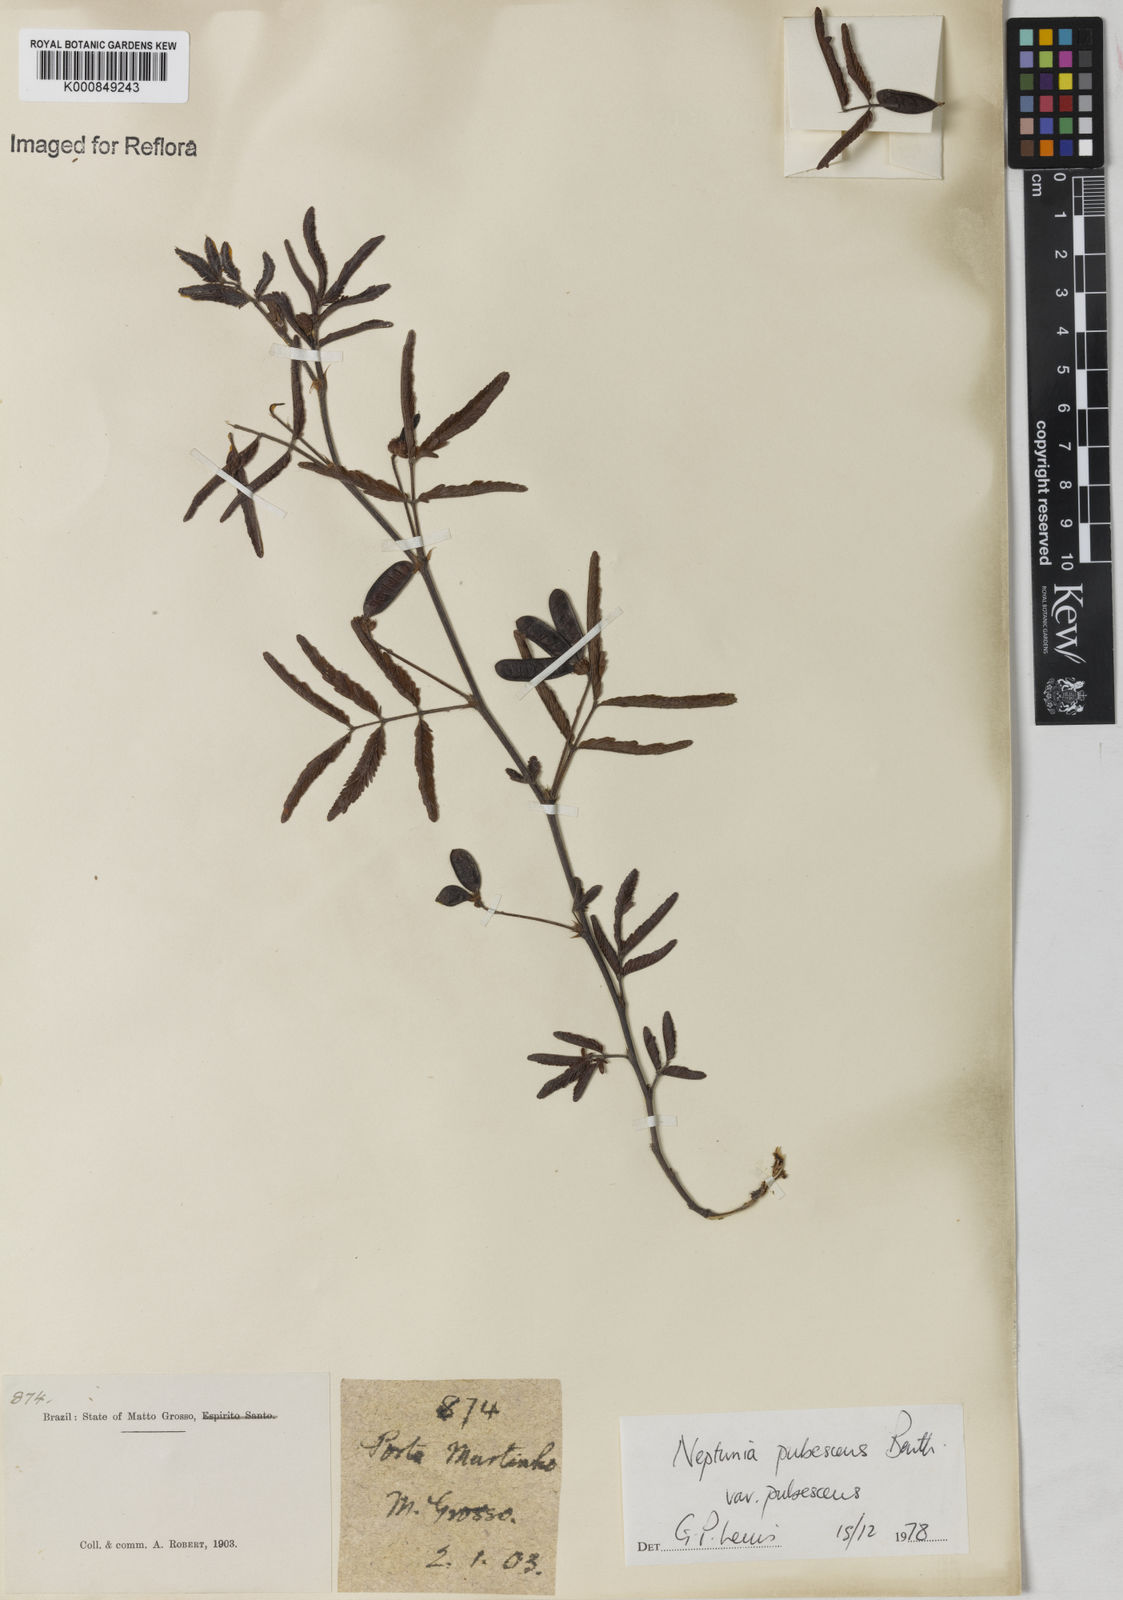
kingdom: Plantae
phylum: Tracheophyta
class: Magnoliopsida
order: Fabales
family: Fabaceae
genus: Neptunia
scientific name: Neptunia pubescens
